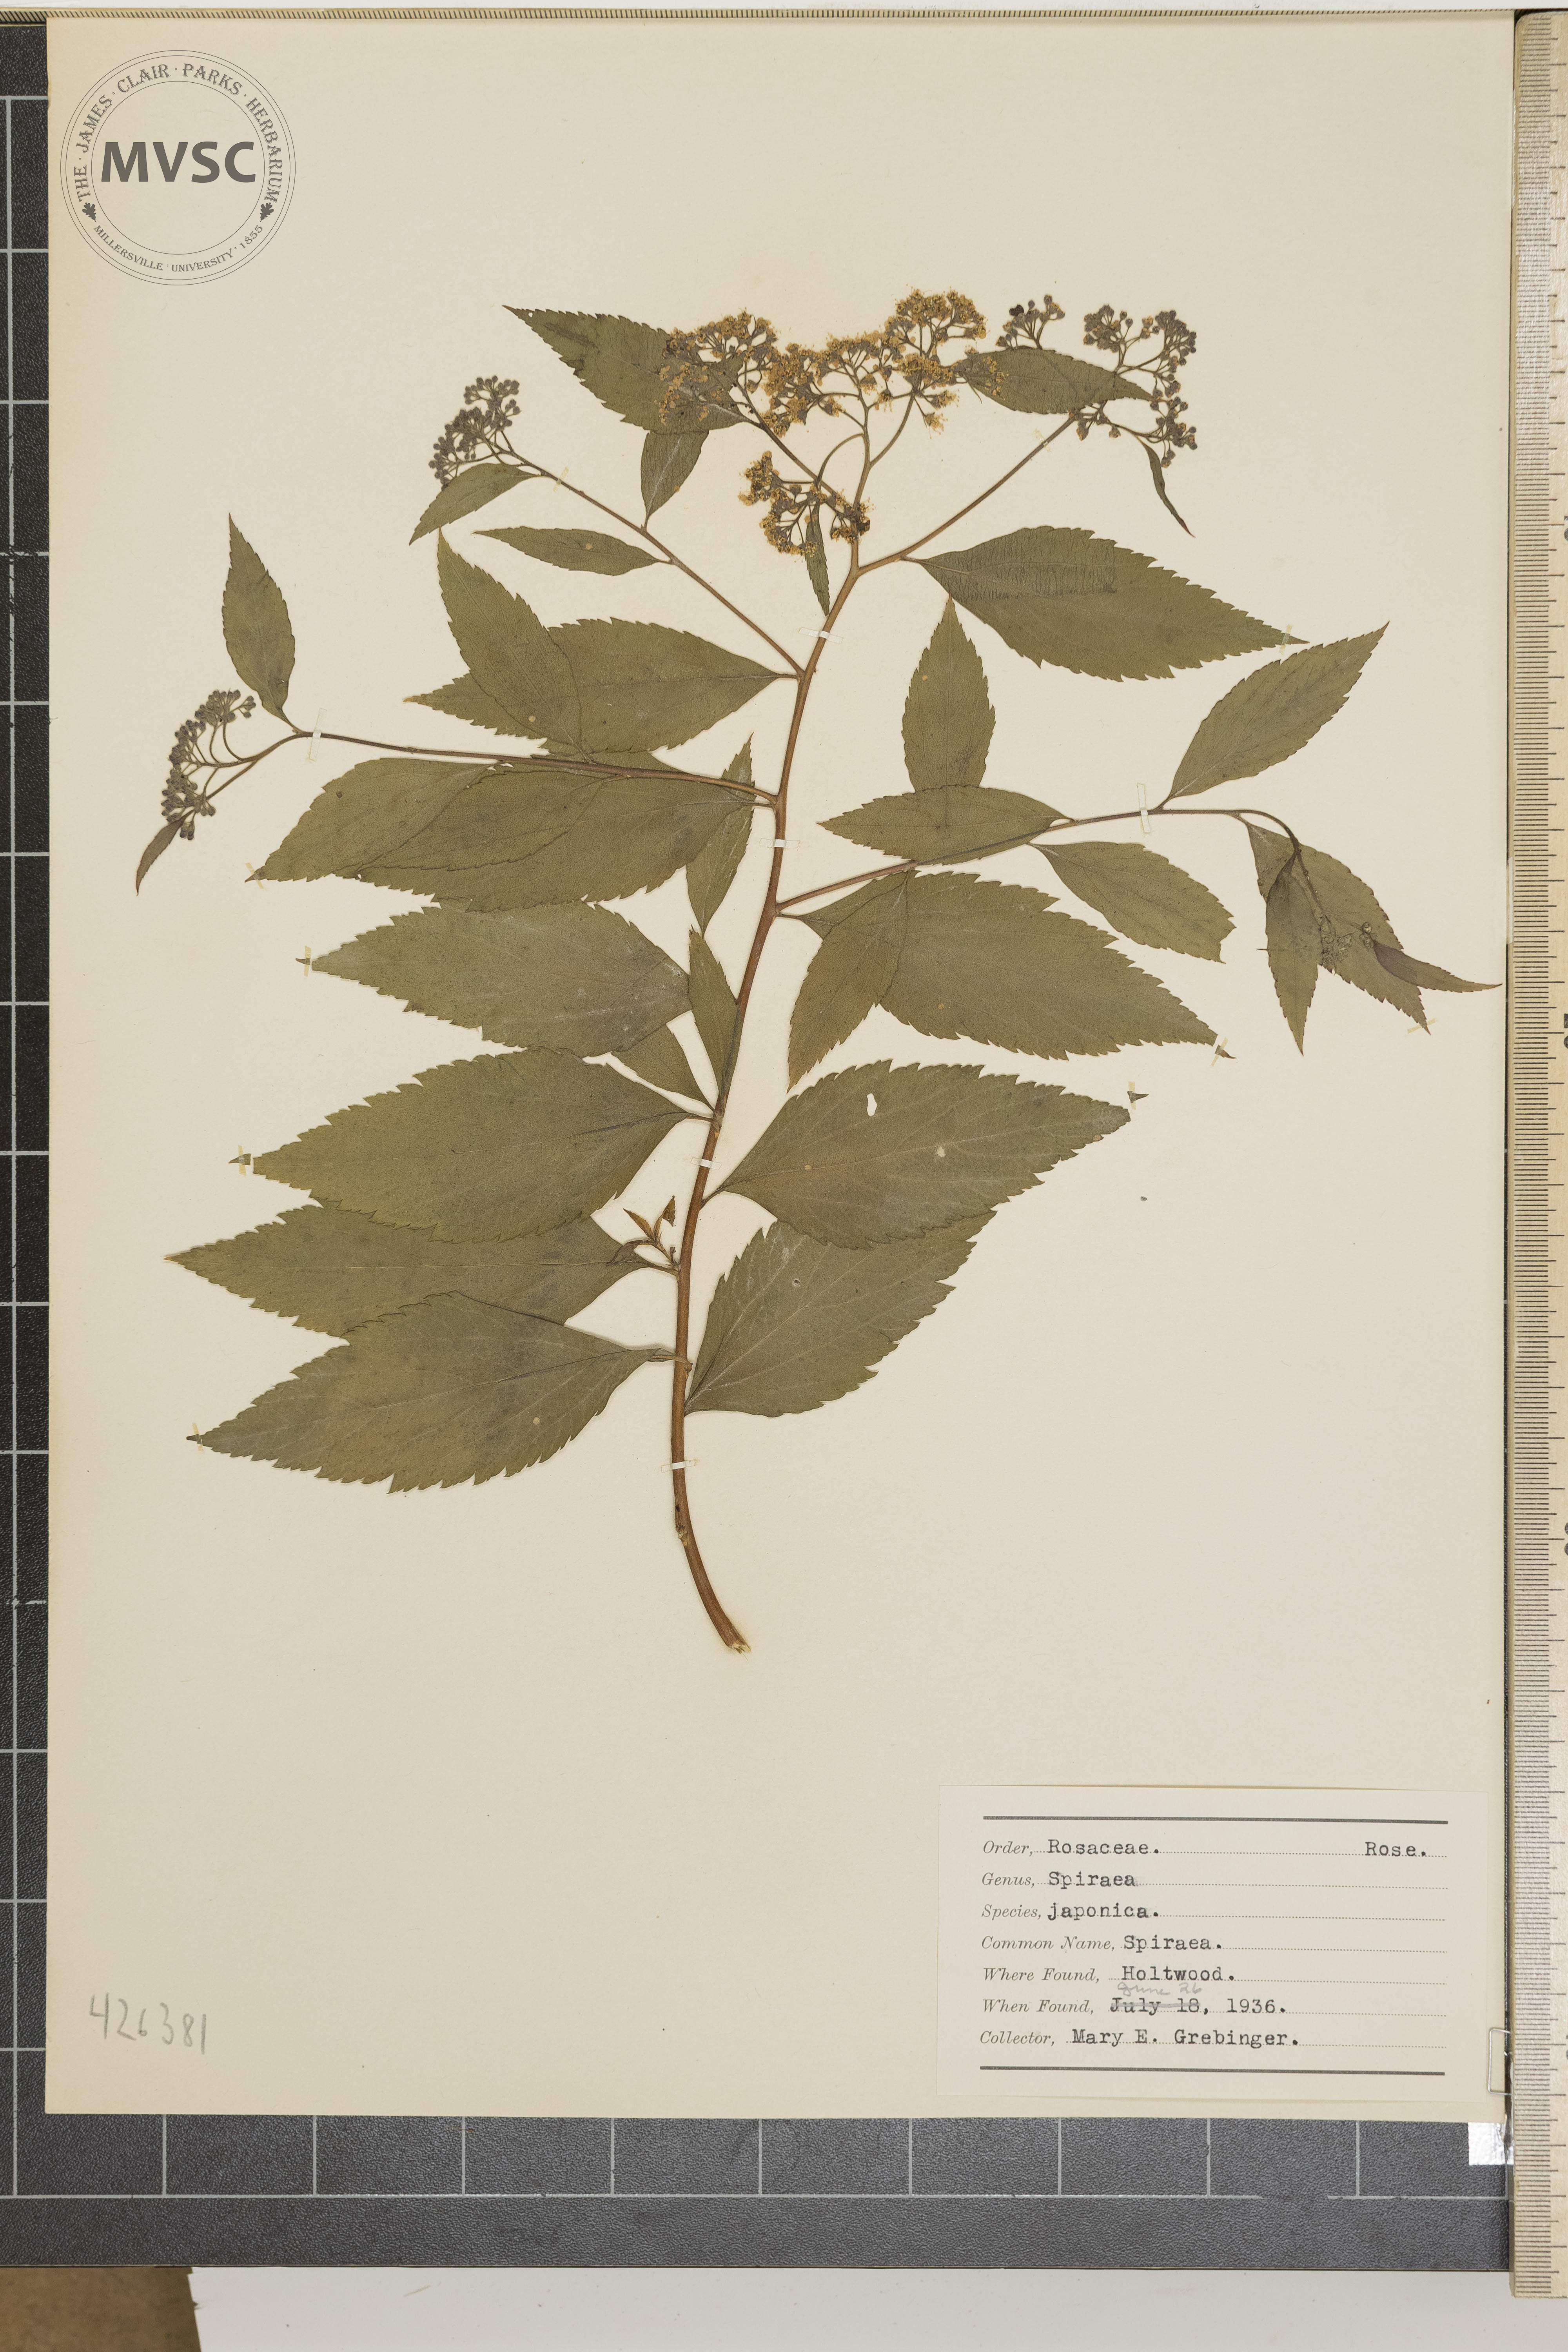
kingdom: Plantae
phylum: Tracheophyta
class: Magnoliopsida
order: Rosales
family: Rosaceae
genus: Spiraea
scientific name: Spiraea japonica
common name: Spiraea
